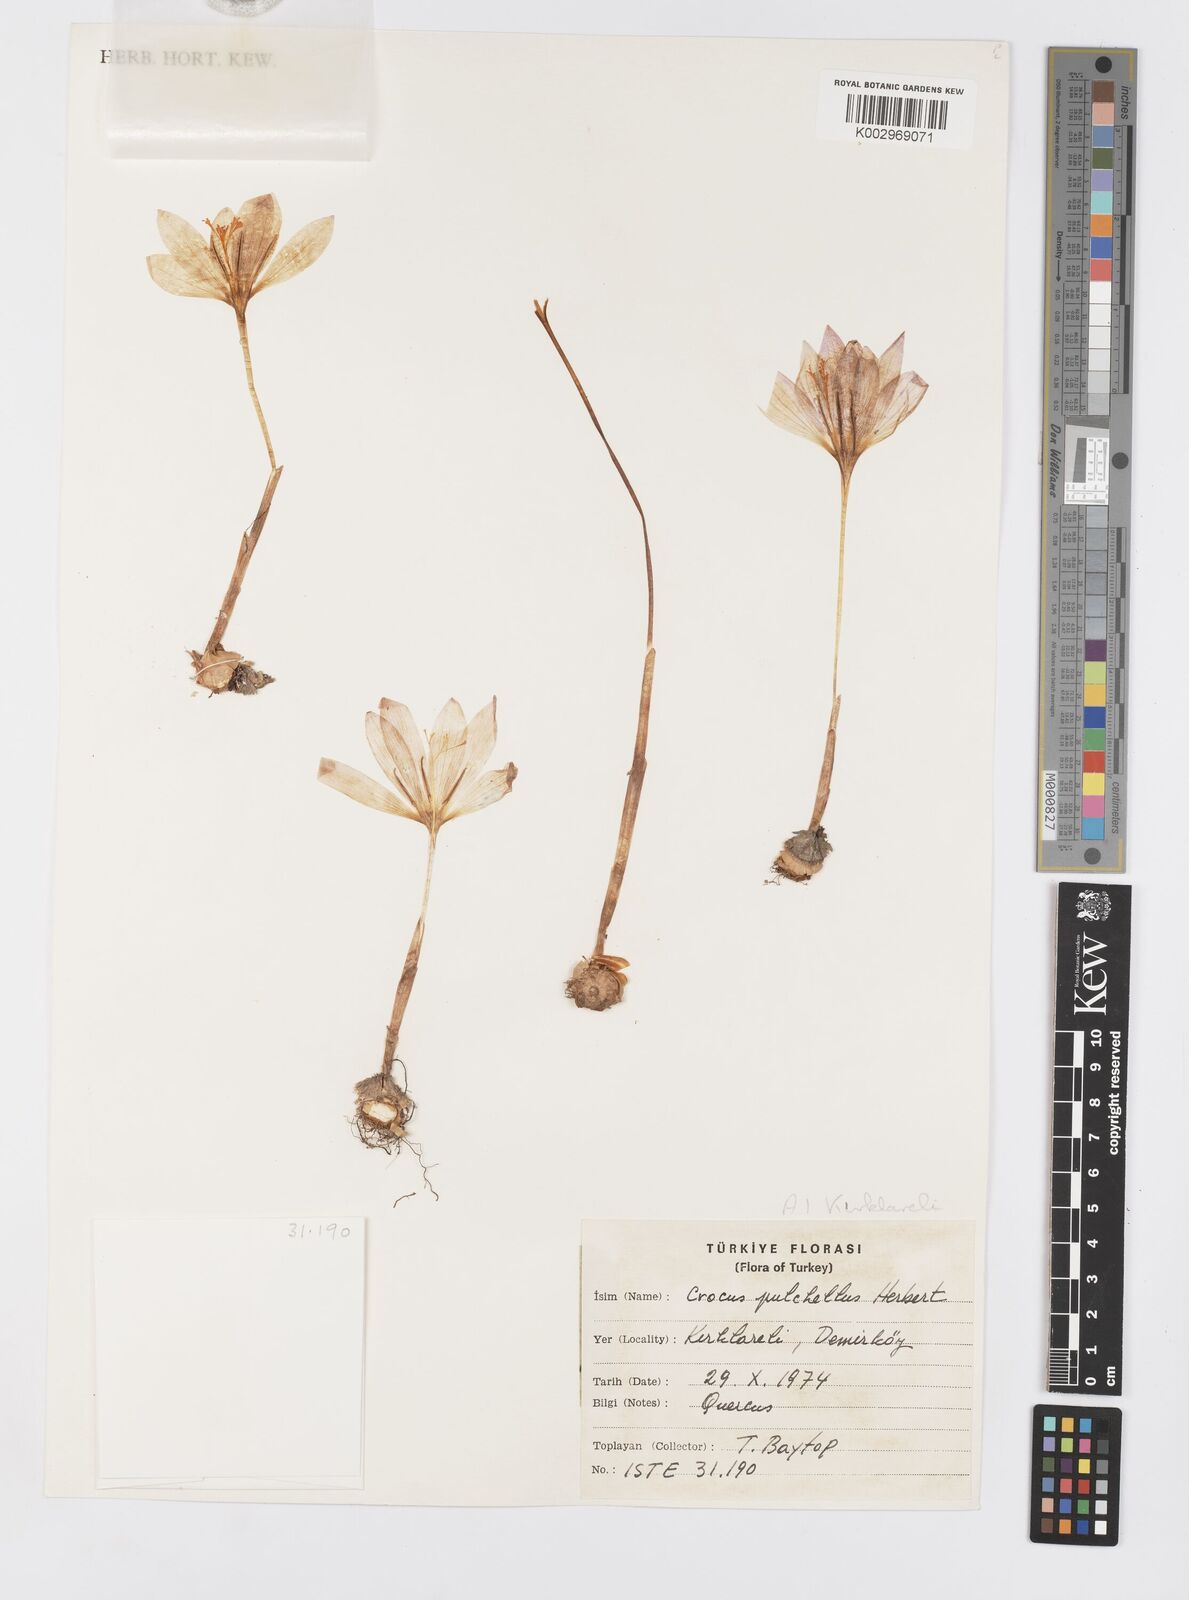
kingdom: Plantae
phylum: Tracheophyta
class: Liliopsida
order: Asparagales
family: Iridaceae
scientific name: Iridaceae
